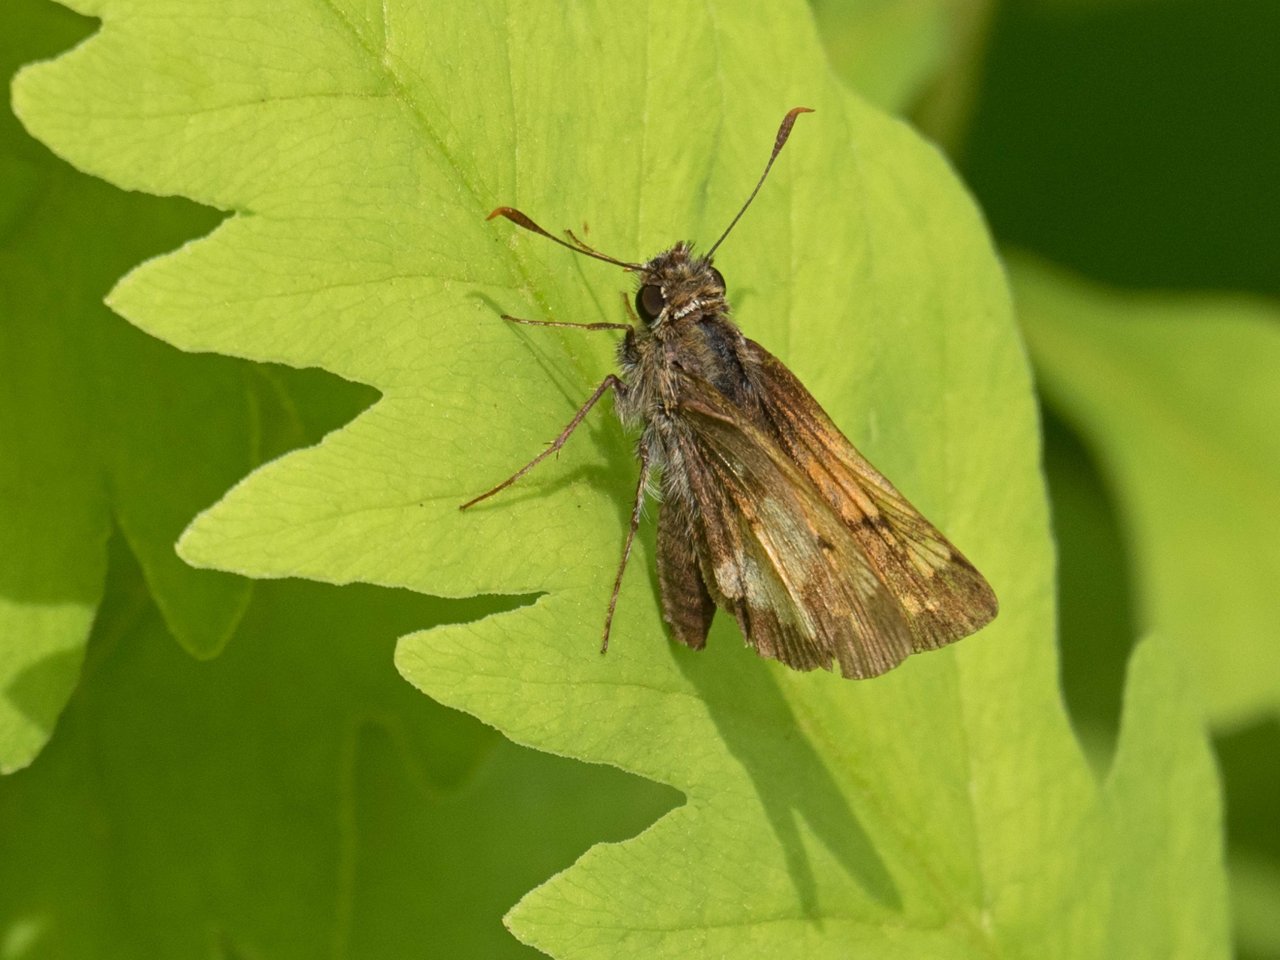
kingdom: Animalia
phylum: Arthropoda
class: Insecta
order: Lepidoptera
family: Hesperiidae
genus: Lon
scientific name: Lon hobomok
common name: Hobomok Skipper
